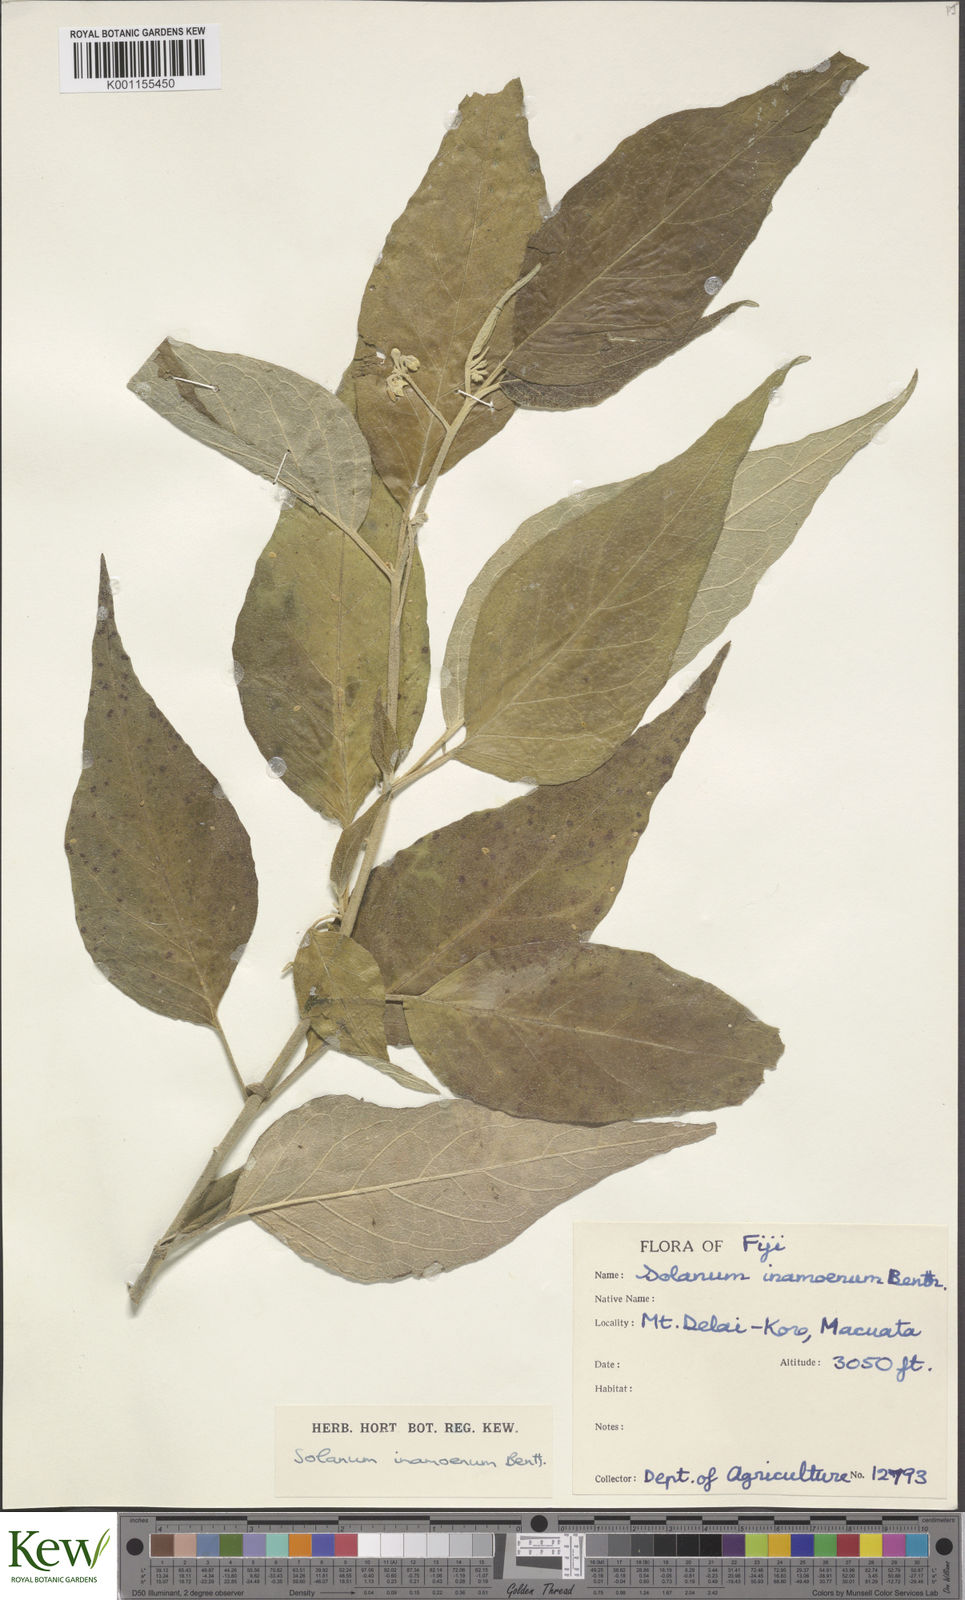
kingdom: Plantae
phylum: Tracheophyta
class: Magnoliopsida
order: Solanales
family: Solanaceae
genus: Solanum
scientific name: Solanum inamoenum
